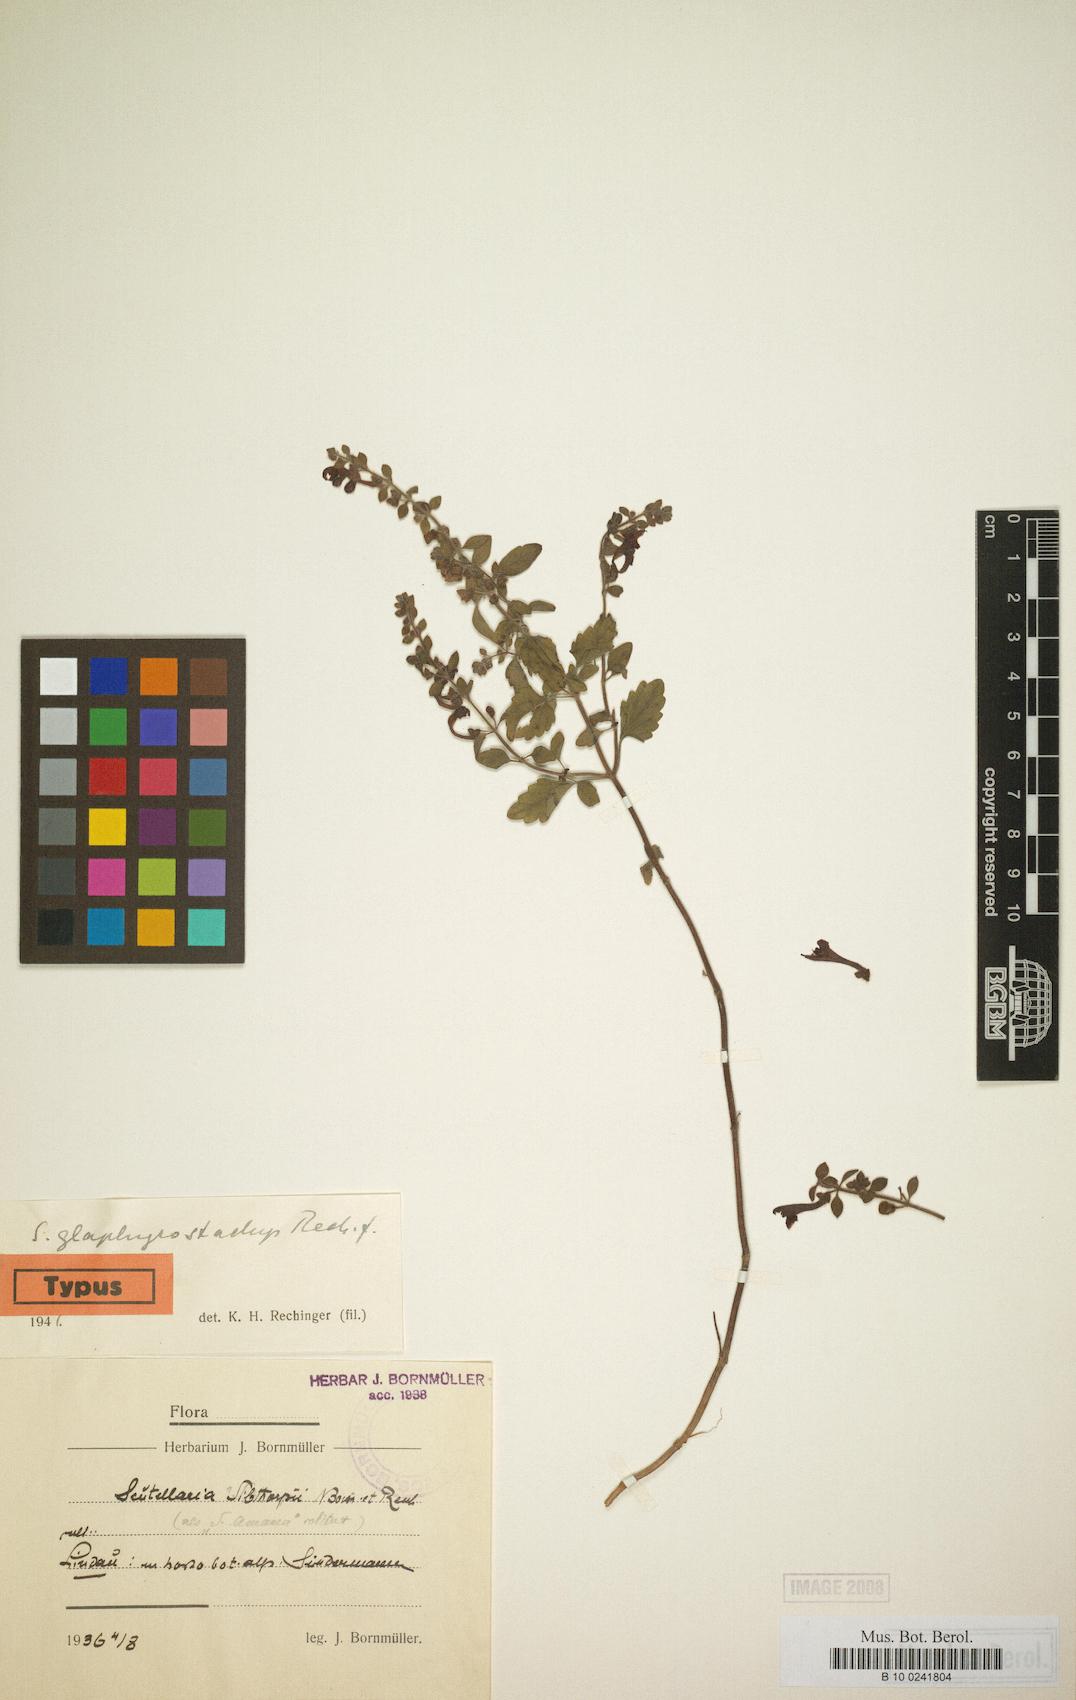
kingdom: Plantae
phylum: Tracheophyta
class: Magnoliopsida
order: Lamiales
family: Lamiaceae
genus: Scutellaria
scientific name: Scutellaria glaphymstachys
